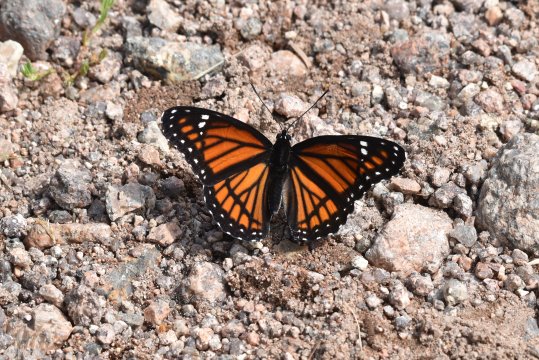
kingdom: Animalia
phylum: Arthropoda
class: Insecta
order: Lepidoptera
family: Nymphalidae
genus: Limenitis
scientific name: Limenitis archippus
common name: Viceroy
